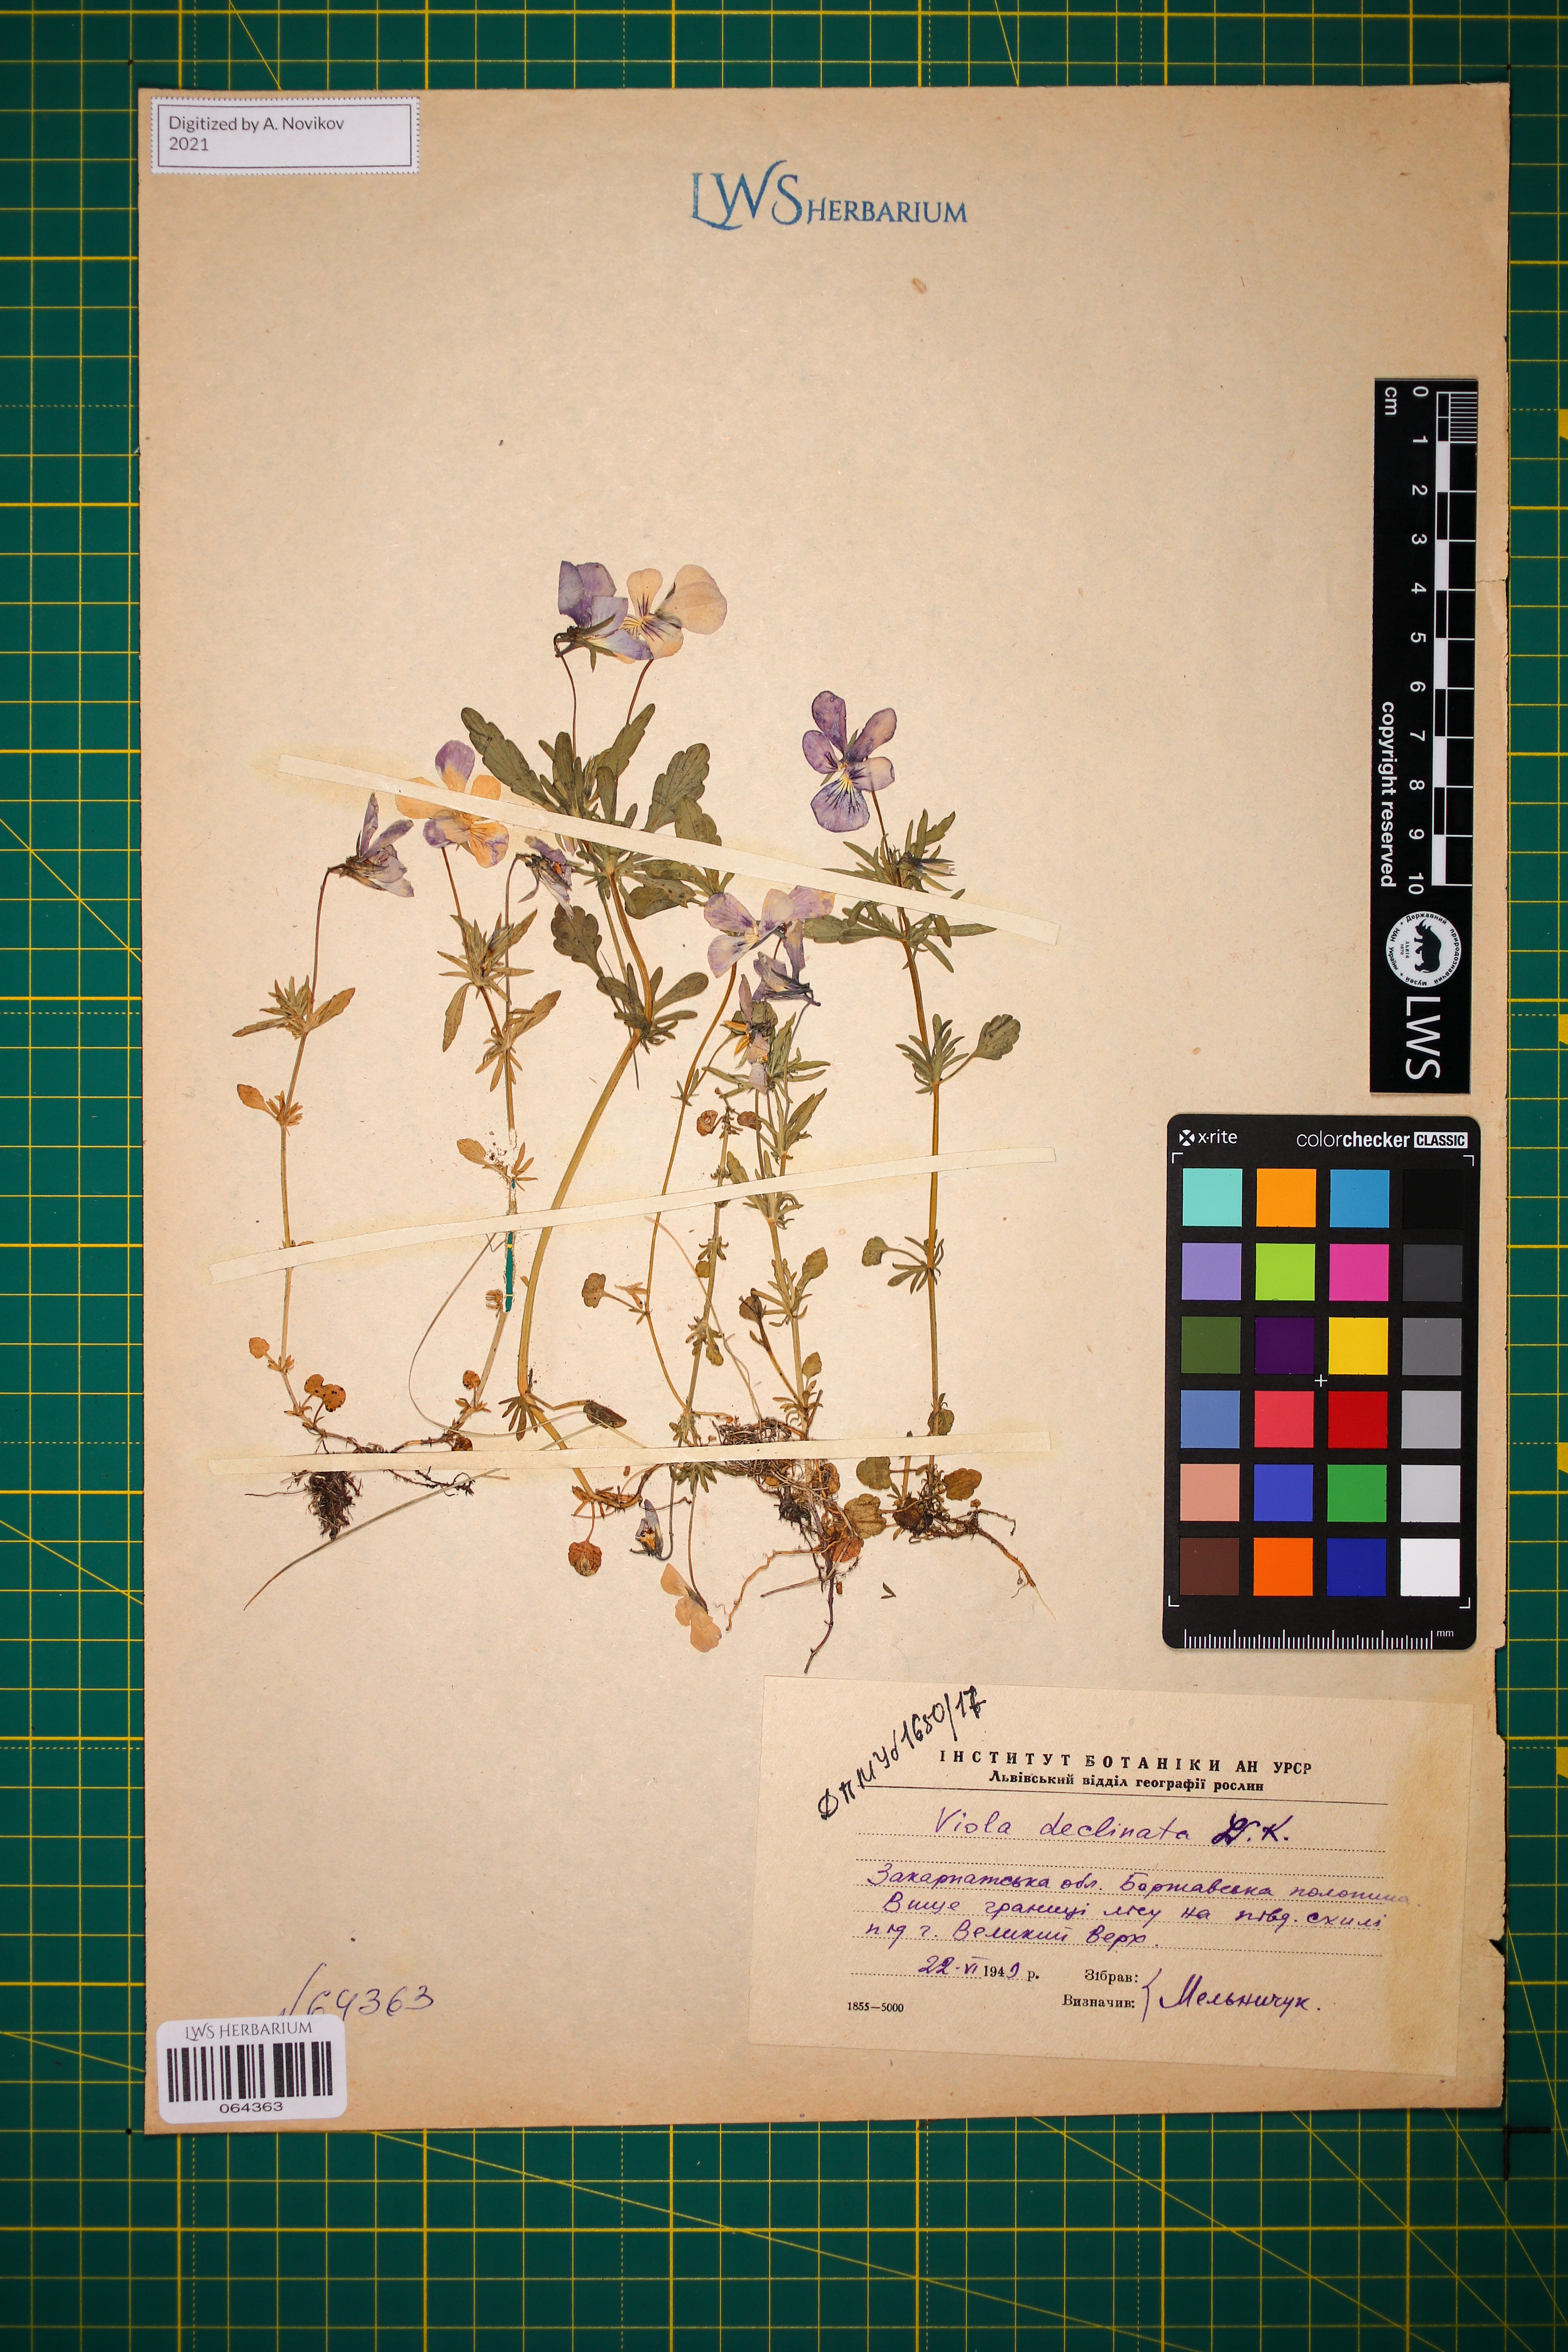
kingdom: Plantae
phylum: Tracheophyta
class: Magnoliopsida
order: Malpighiales
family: Violaceae
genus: Viola
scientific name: Viola declinata
